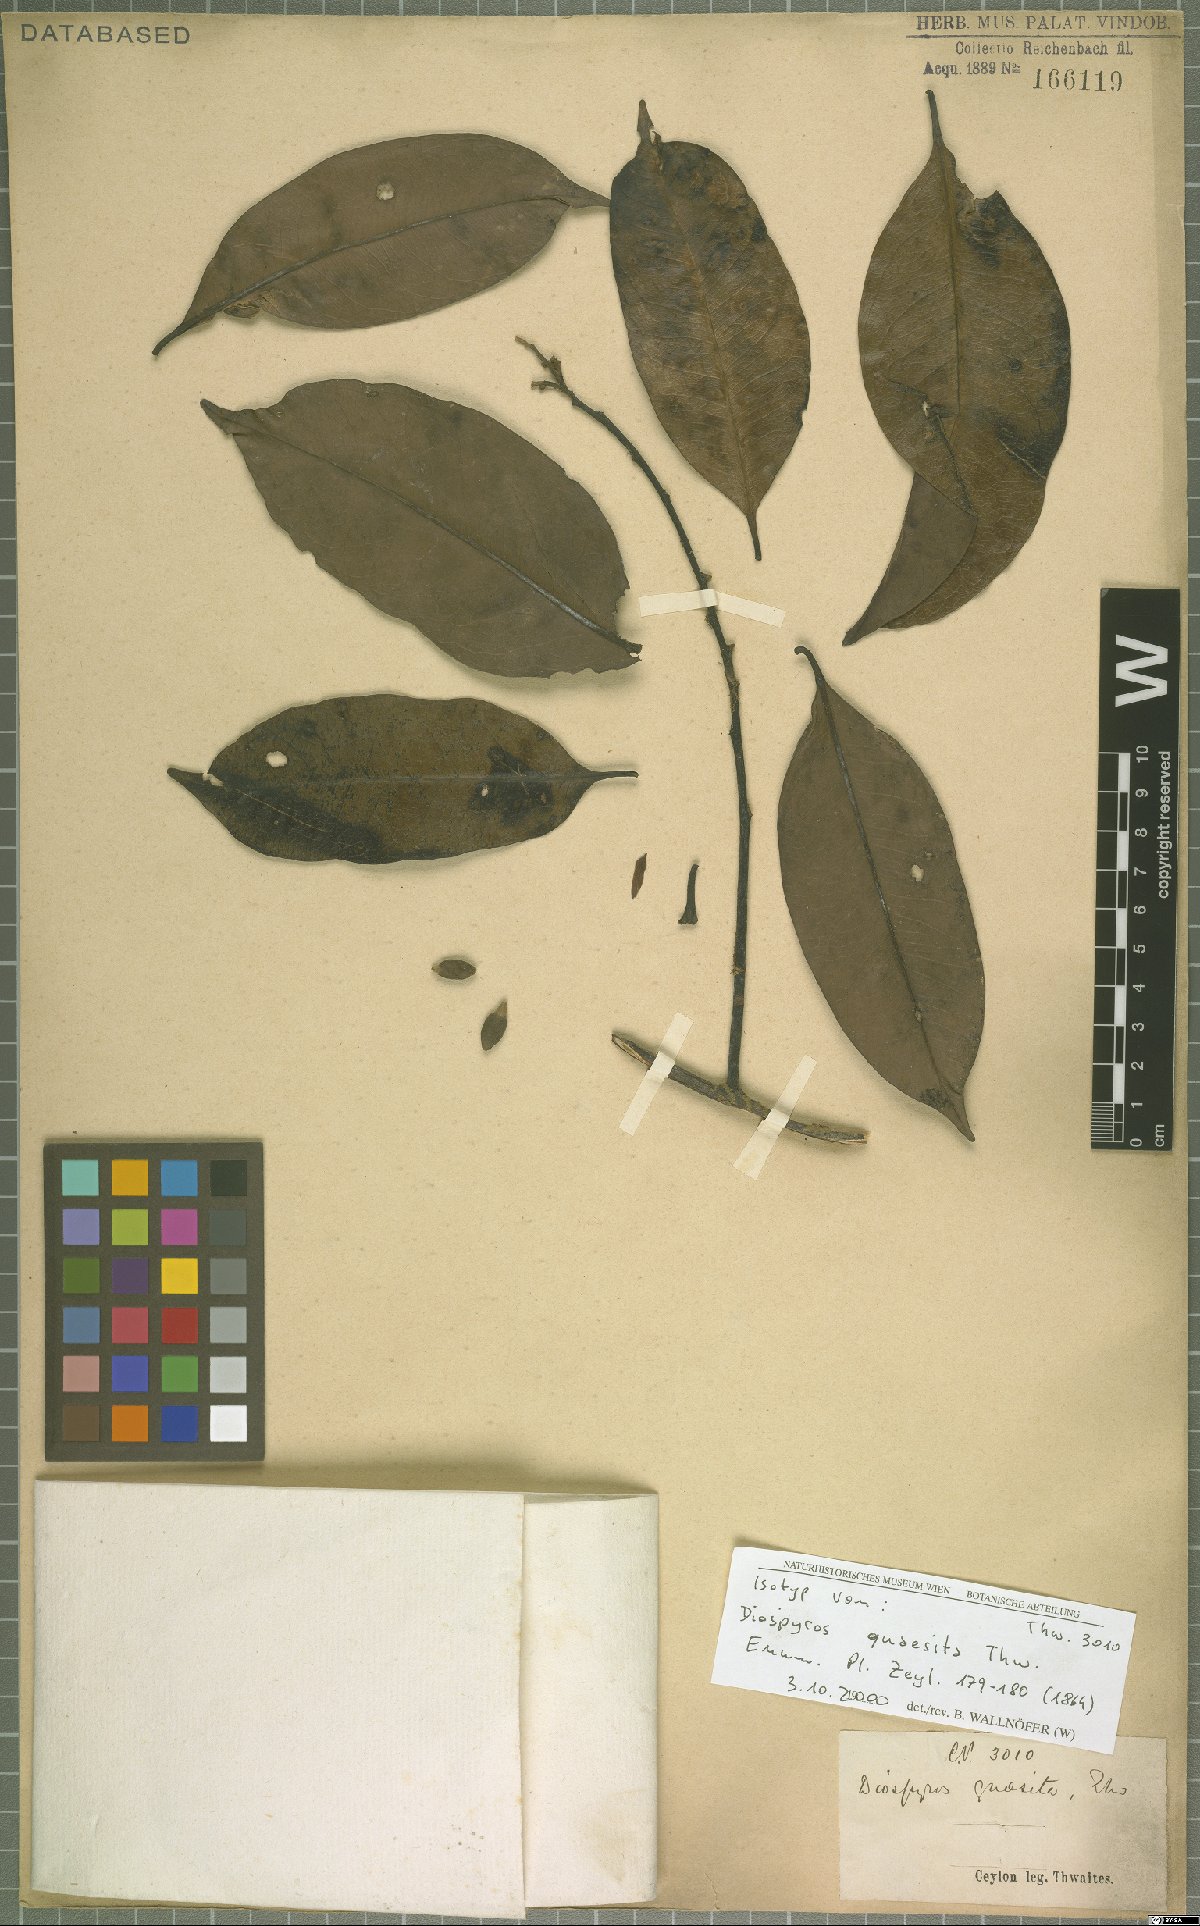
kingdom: Plantae
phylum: Tracheophyta
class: Magnoliopsida
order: Ericales
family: Ebenaceae
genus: Diospyros
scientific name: Diospyros quaesita
